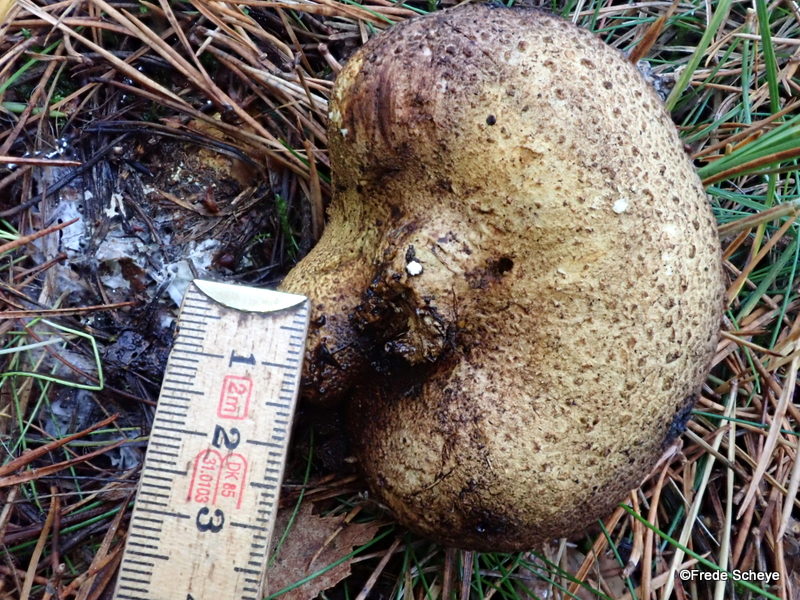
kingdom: Fungi
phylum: Basidiomycota
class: Agaricomycetes
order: Boletales
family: Sclerodermataceae
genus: Scleroderma
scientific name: Scleroderma citrinum
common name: almindelig bruskbold
